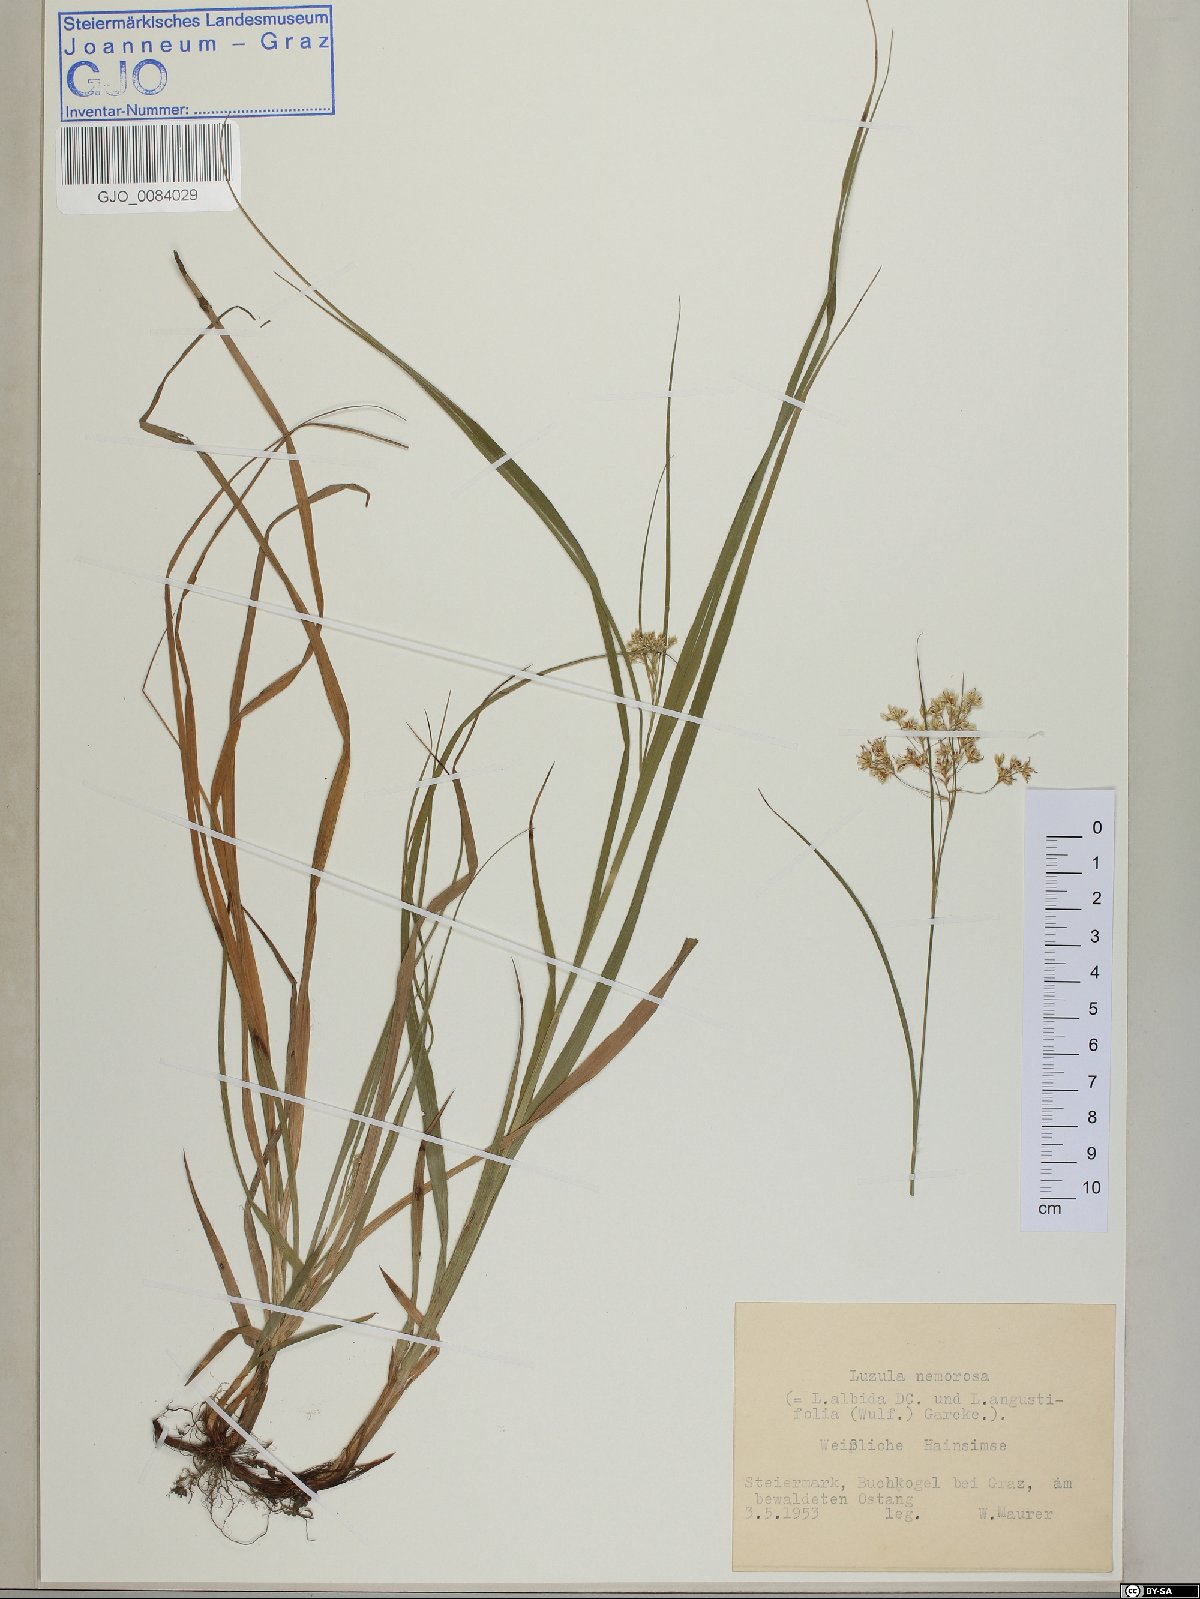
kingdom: Plantae
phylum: Tracheophyta
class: Liliopsida
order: Poales
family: Juncaceae
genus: Luzula
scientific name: Luzula luzuloides
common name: White wood-rush
